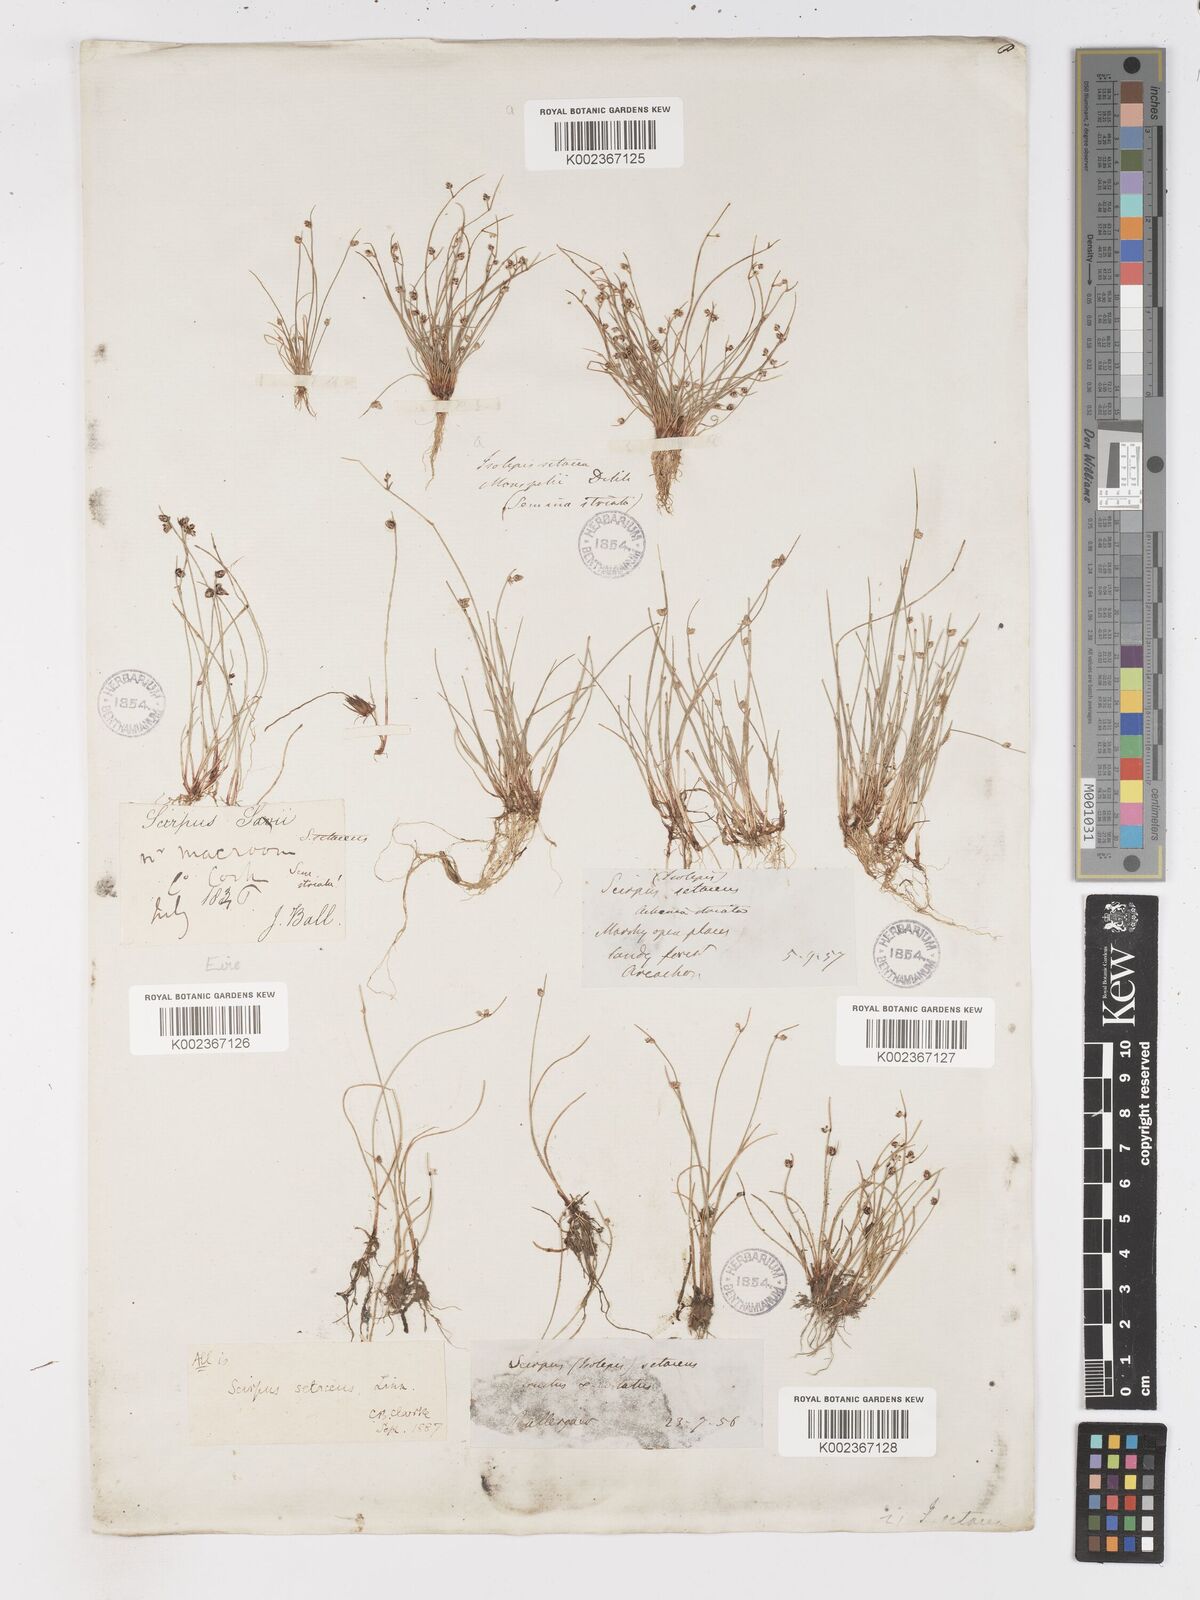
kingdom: Plantae
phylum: Tracheophyta
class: Liliopsida
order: Poales
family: Cyperaceae
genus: Isolepis
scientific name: Isolepis setacea
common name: Bristle club-rush
